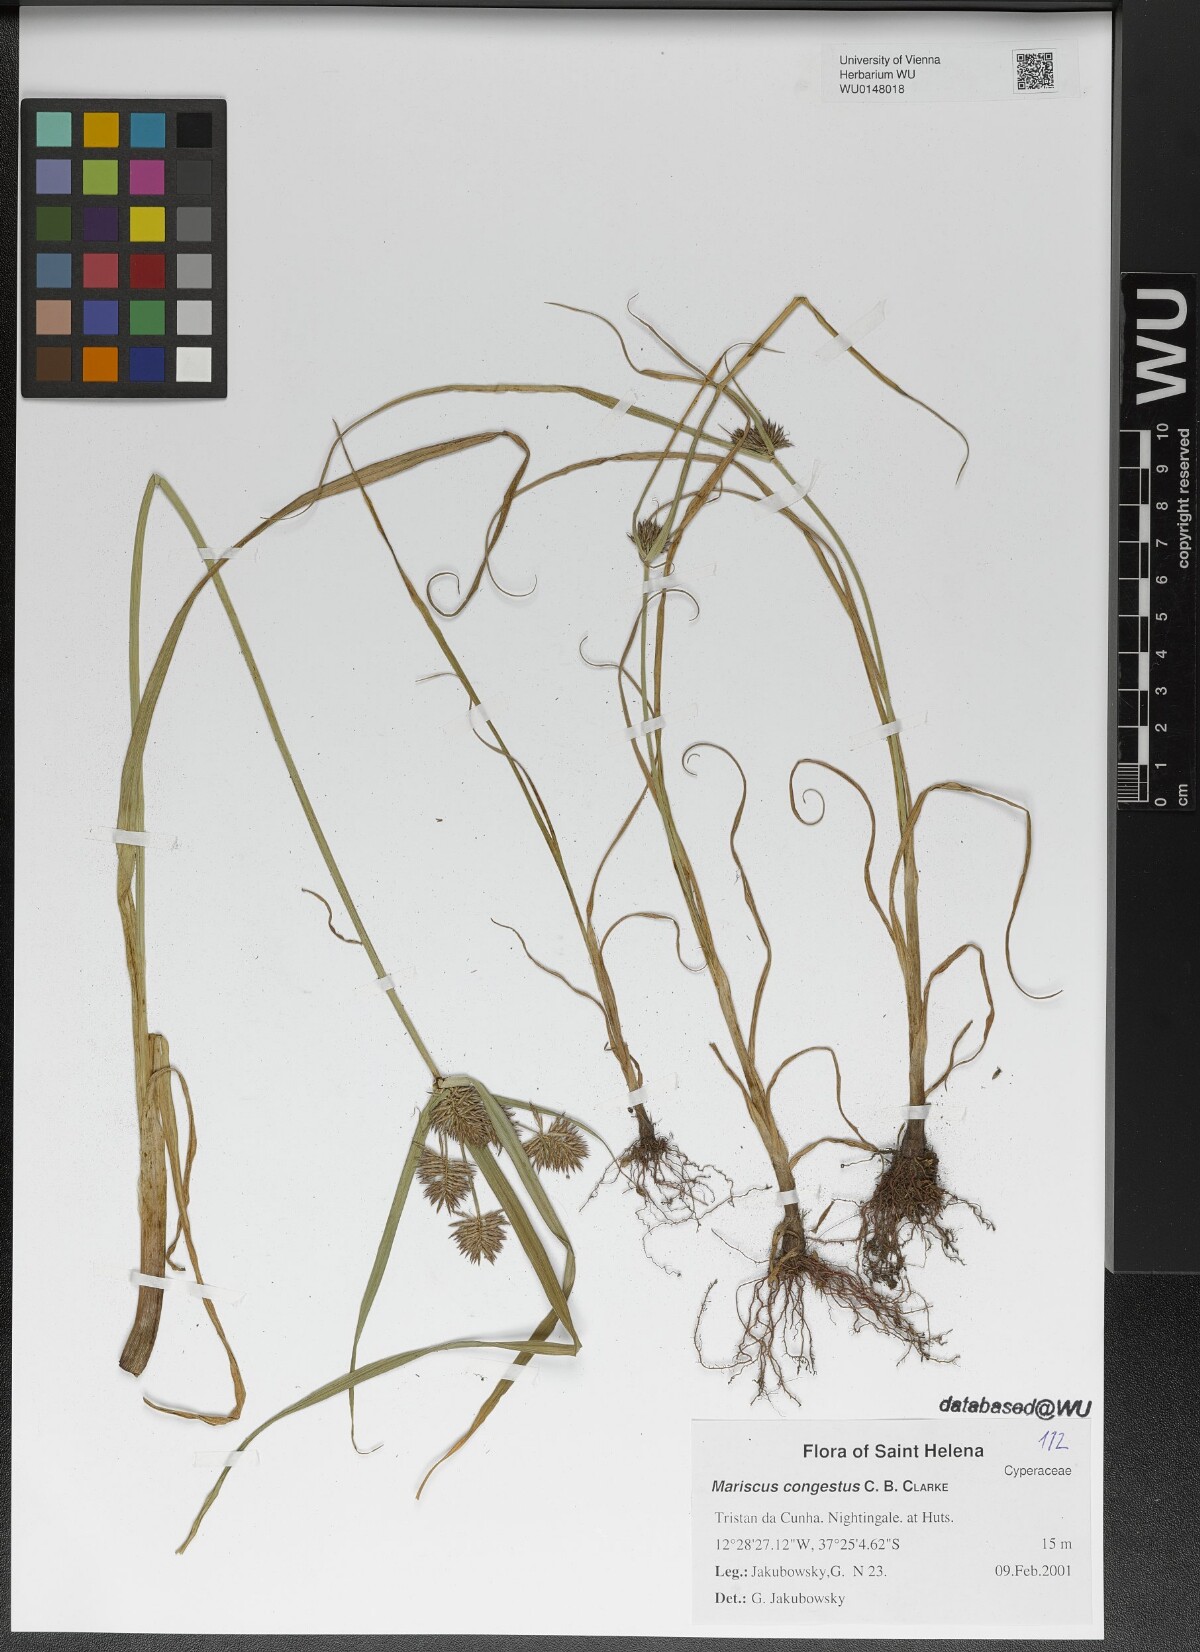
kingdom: Plantae
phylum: Tracheophyta
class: Liliopsida
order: Poales
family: Cyperaceae
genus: Cyperus
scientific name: Cyperus congestus
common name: Dense flat sedge
